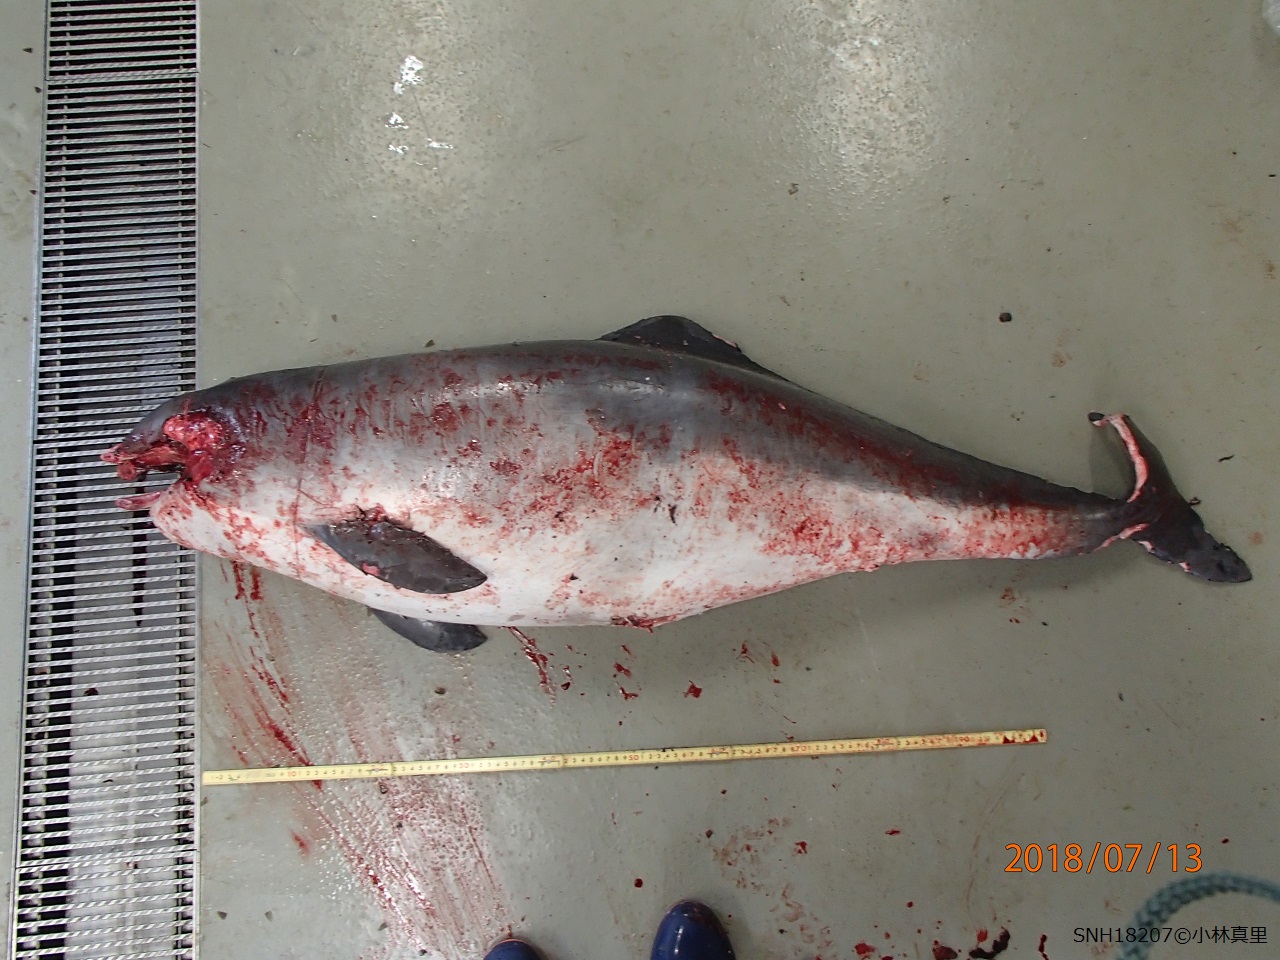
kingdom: Animalia
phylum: Chordata
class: Mammalia
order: Cetacea
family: Phocoenidae
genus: Phocoena
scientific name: Phocoena phocoena
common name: Harbour porpoise
